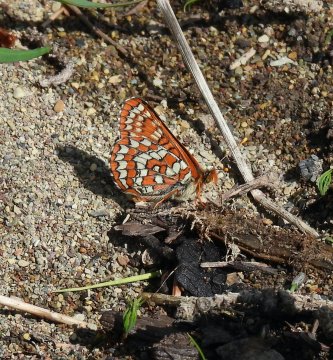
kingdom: Animalia
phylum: Arthropoda
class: Insecta
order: Lepidoptera
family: Nymphalidae
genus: Chlosyne
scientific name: Chlosyne palla
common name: Northern Checkerspot
